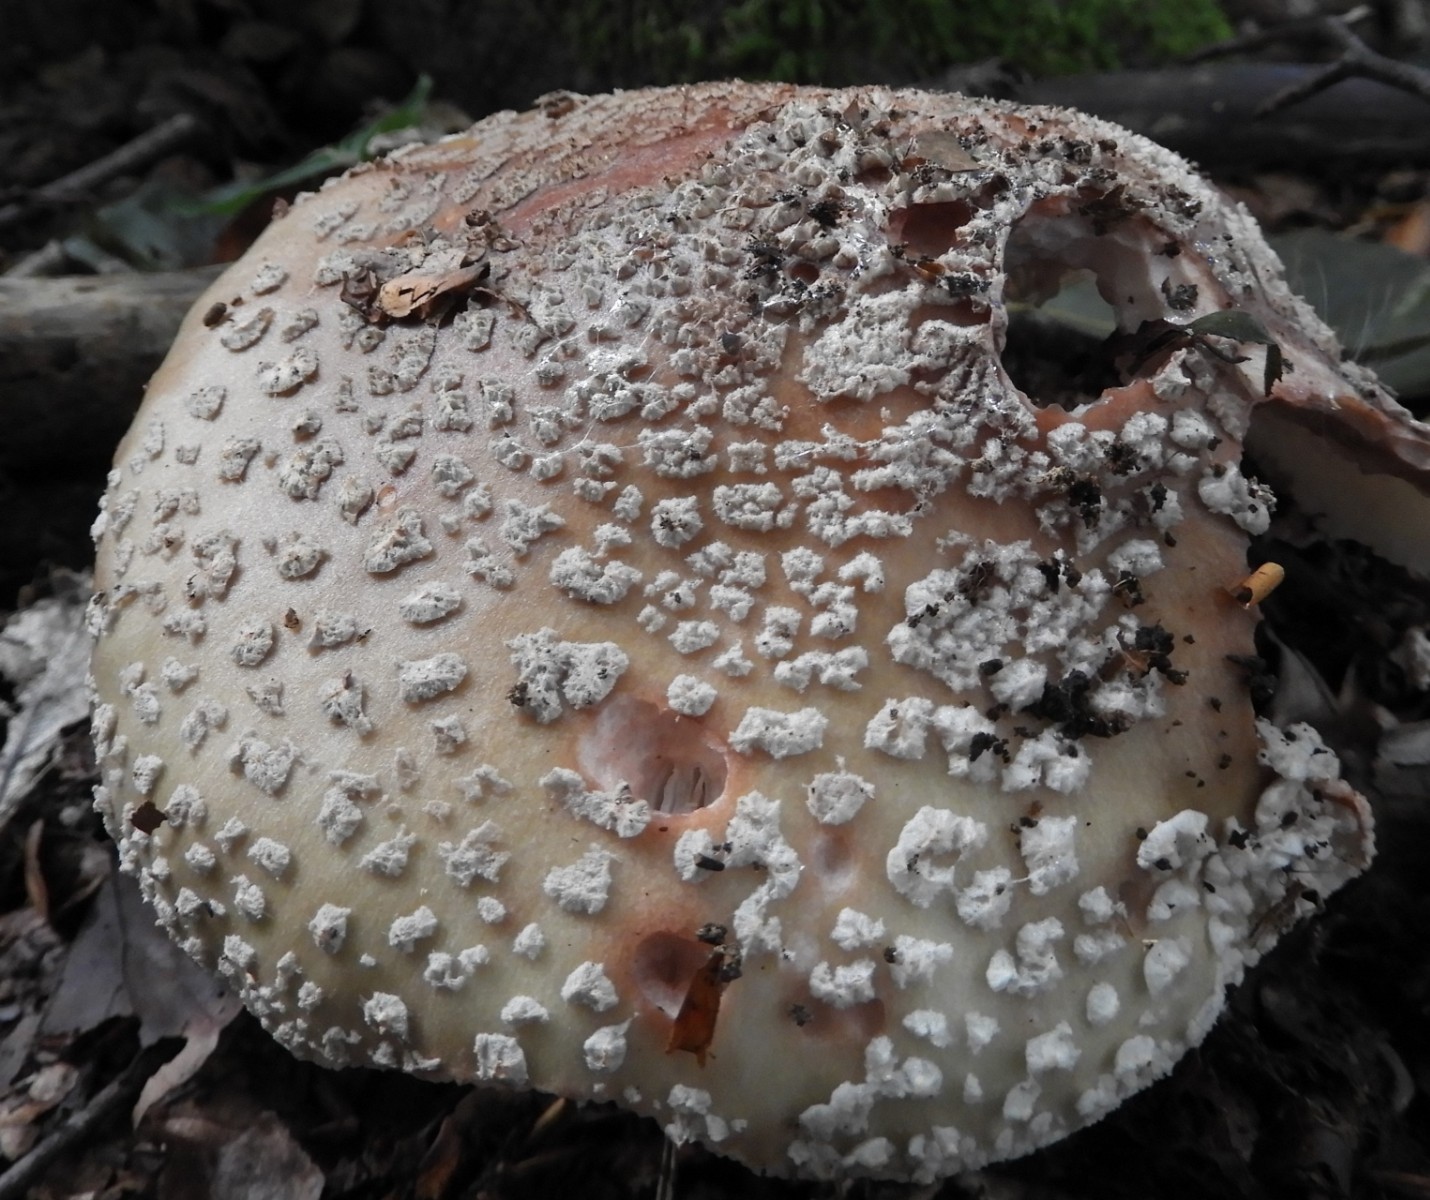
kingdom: Fungi
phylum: Basidiomycota
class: Agaricomycetes
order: Agaricales
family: Amanitaceae
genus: Amanita
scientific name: Amanita rubescens
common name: rødmende fluesvamp
